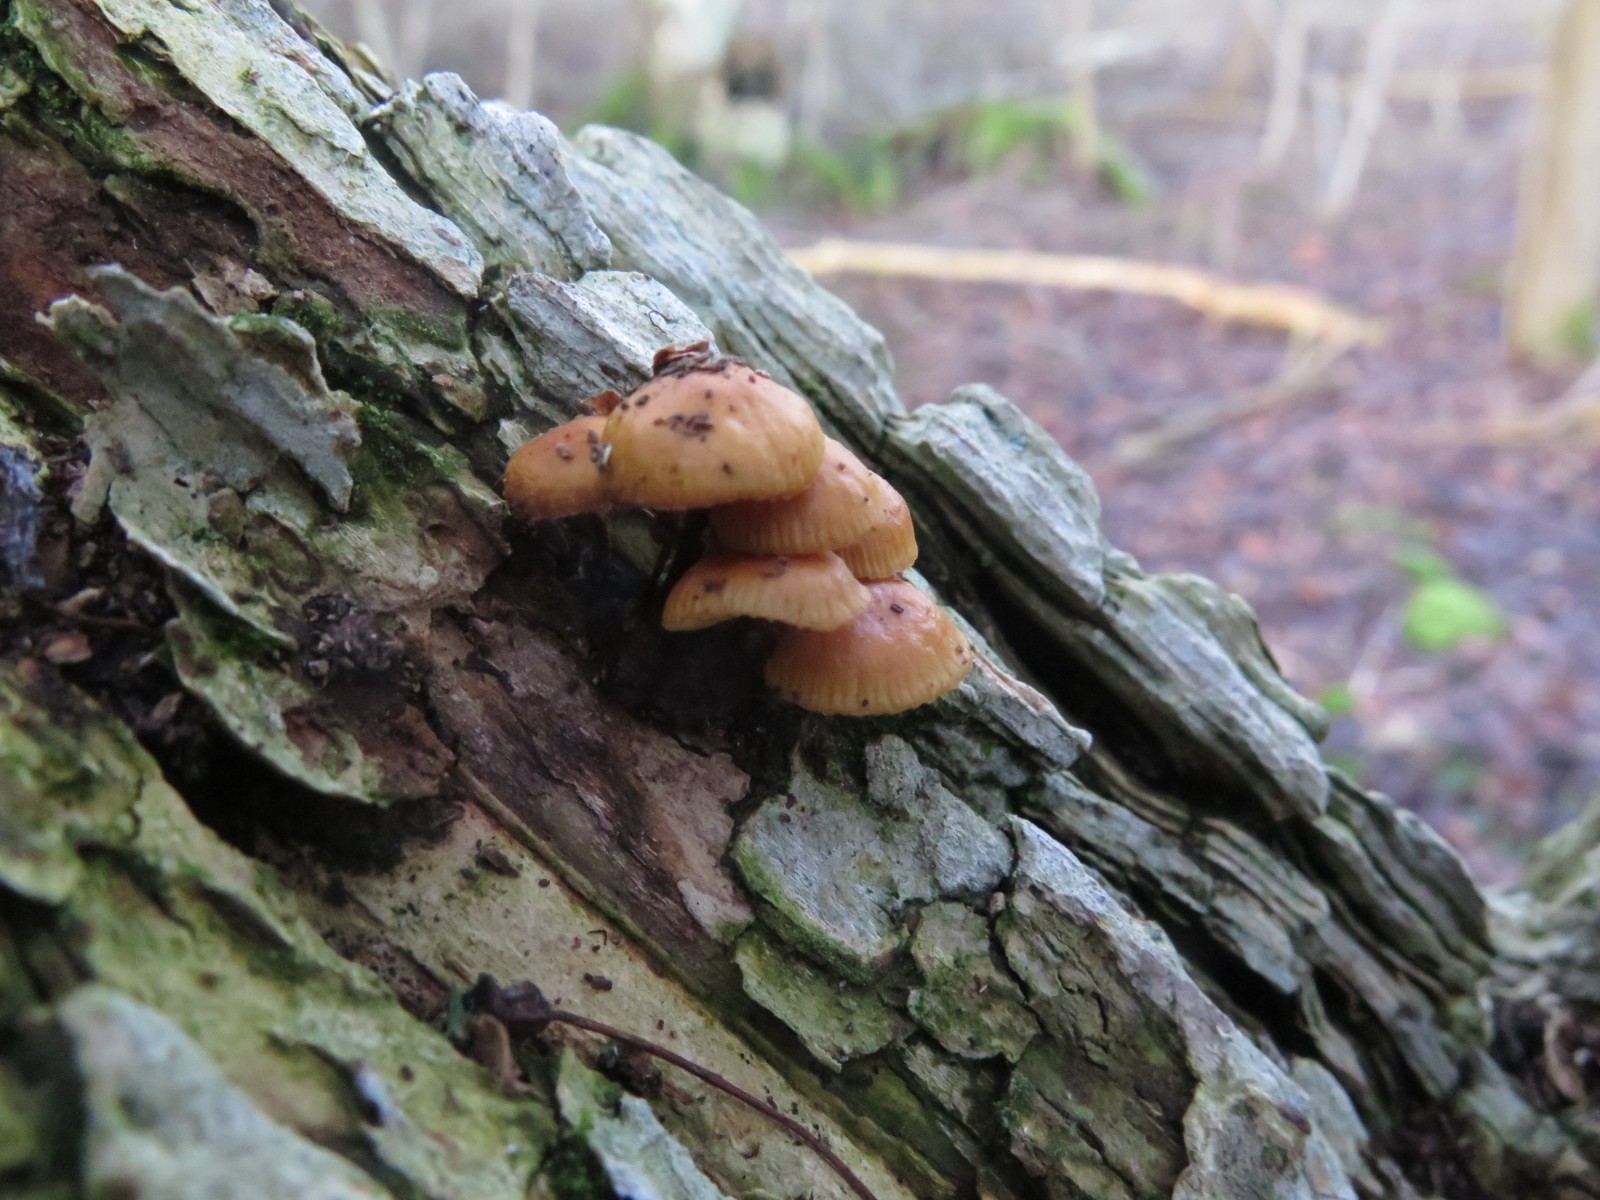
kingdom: Fungi
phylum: Basidiomycota
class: Agaricomycetes
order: Agaricales
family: Physalacriaceae
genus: Flammulina
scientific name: Flammulina elastica
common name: pile-fløjlsfod
